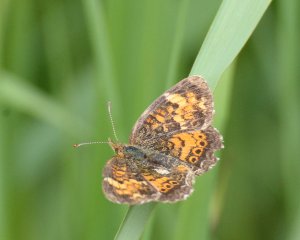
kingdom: Animalia
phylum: Arthropoda
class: Insecta
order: Lepidoptera
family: Nymphalidae
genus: Phyciodes
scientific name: Phyciodes tharos
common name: Northern Crescent
